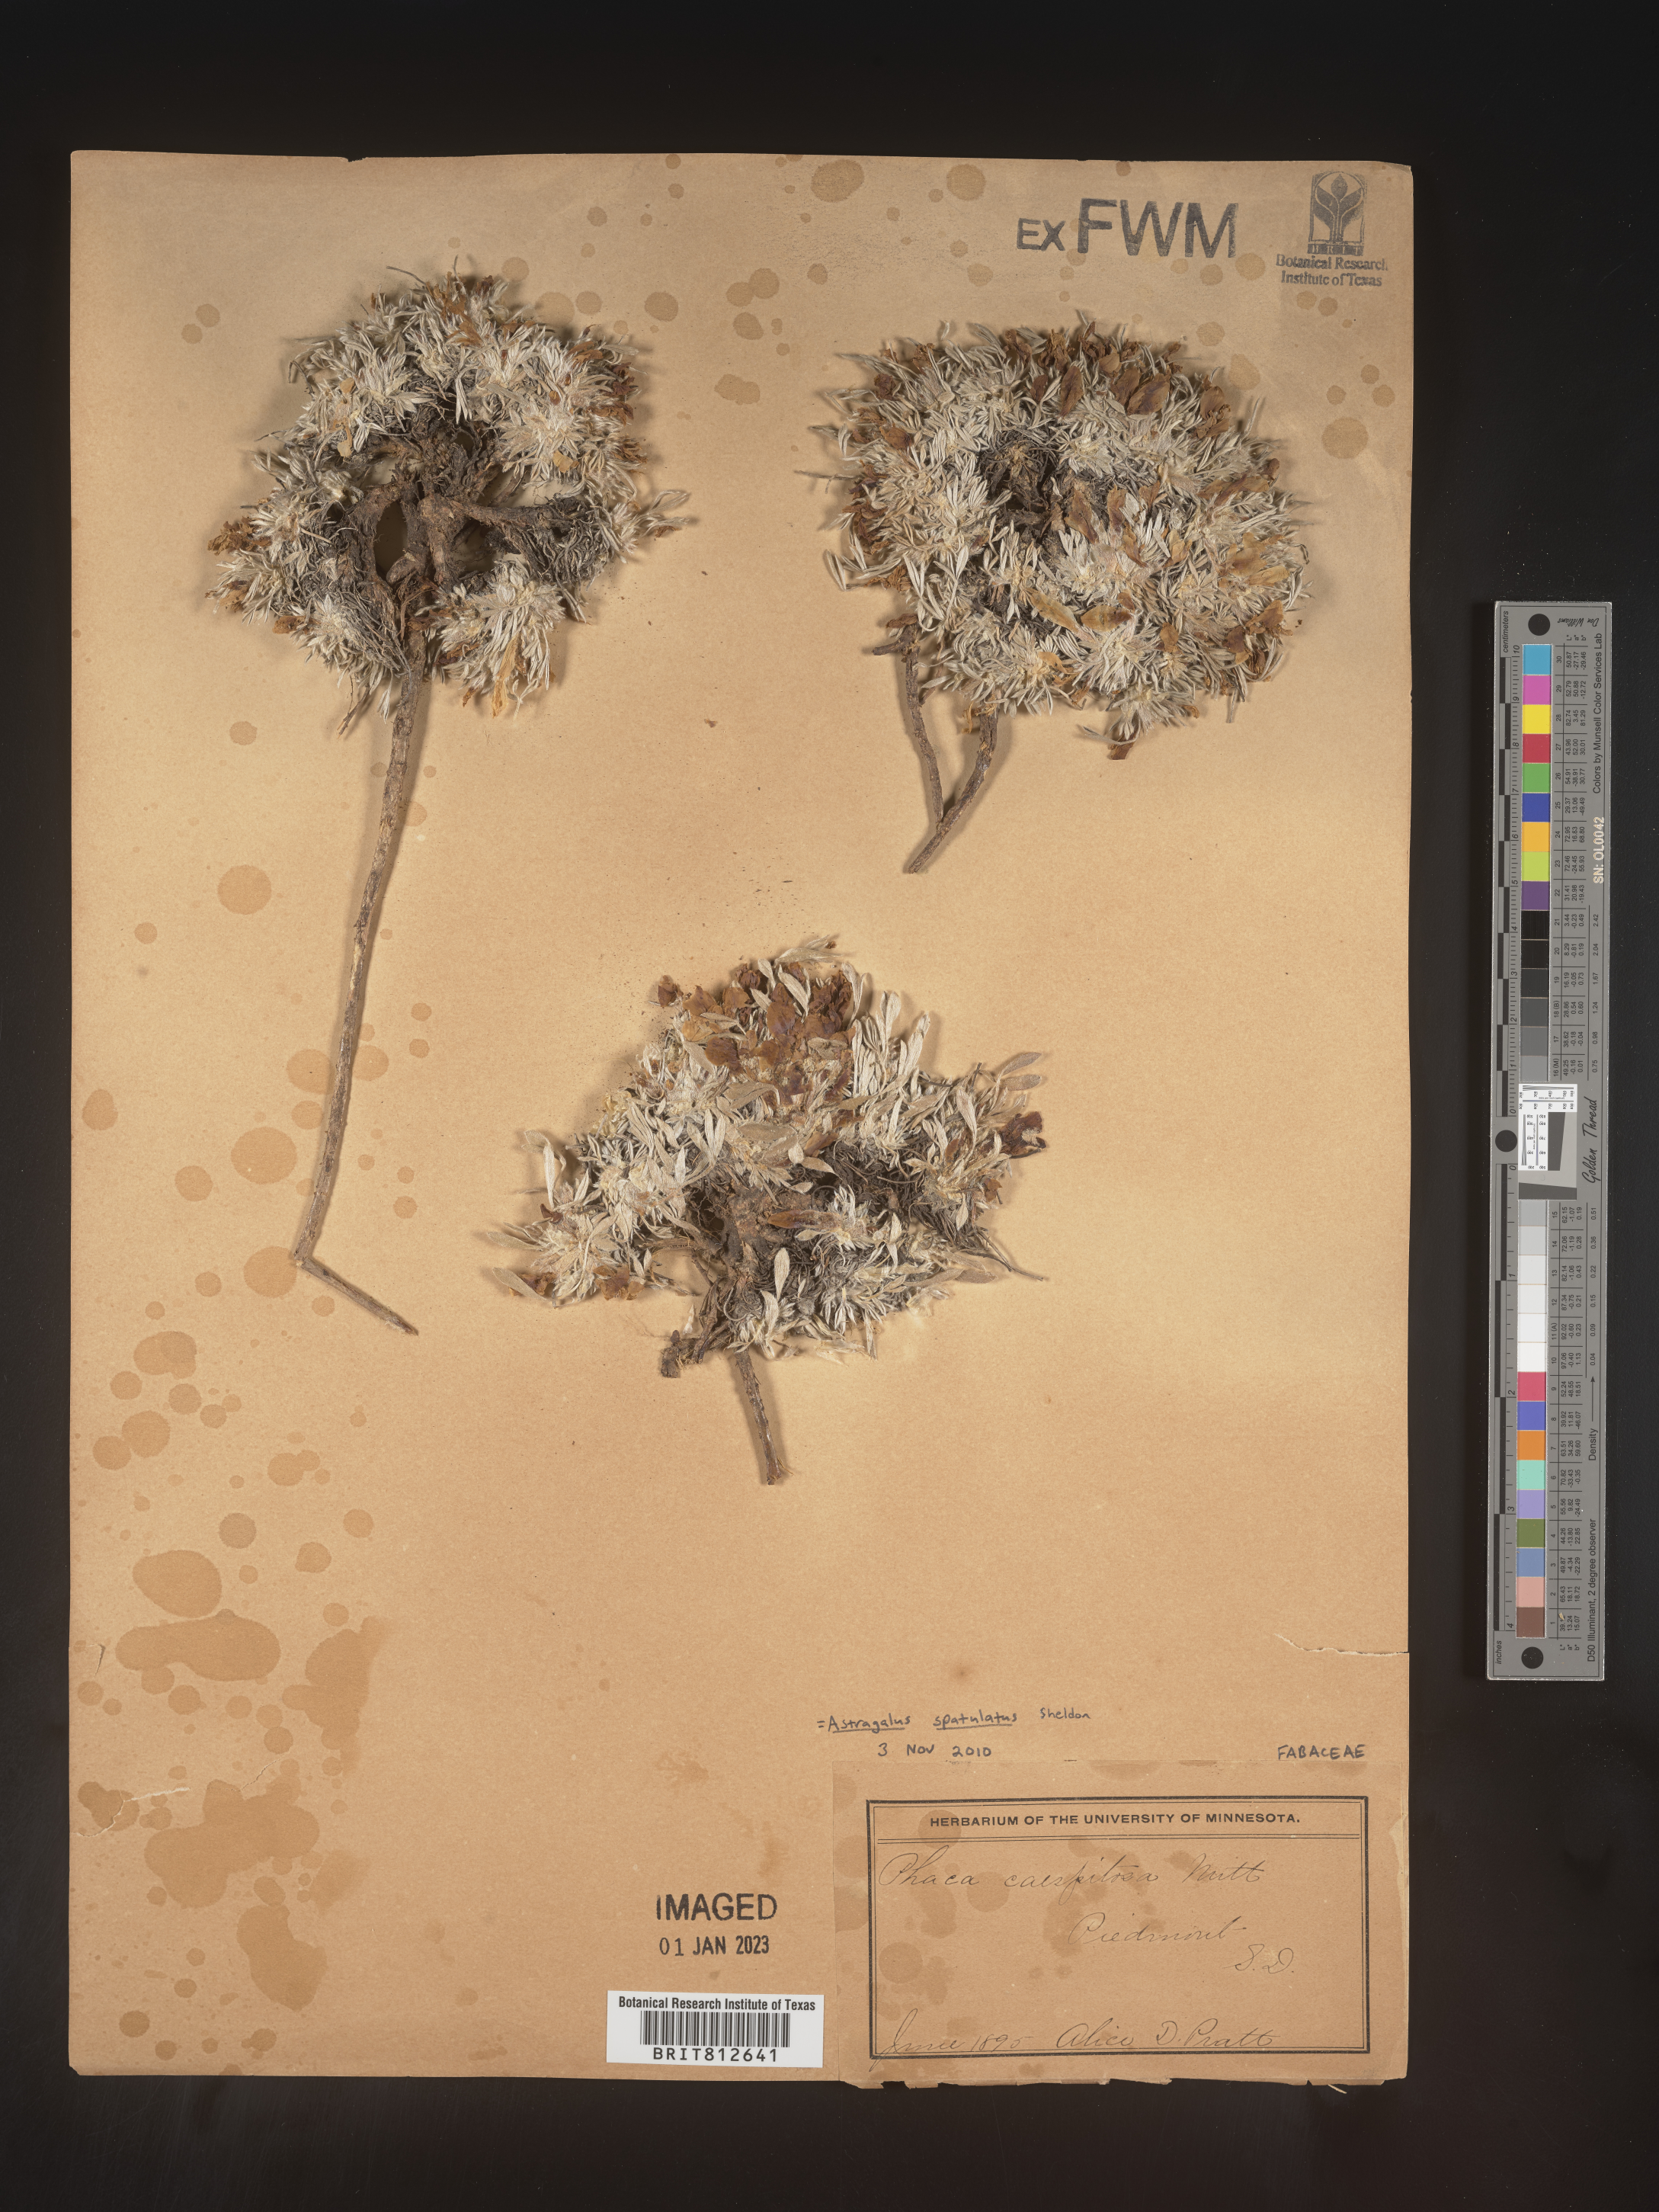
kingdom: Plantae
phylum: Tracheophyta
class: Magnoliopsida
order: Fabales
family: Fabaceae
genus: Astragalus
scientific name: Astragalus
